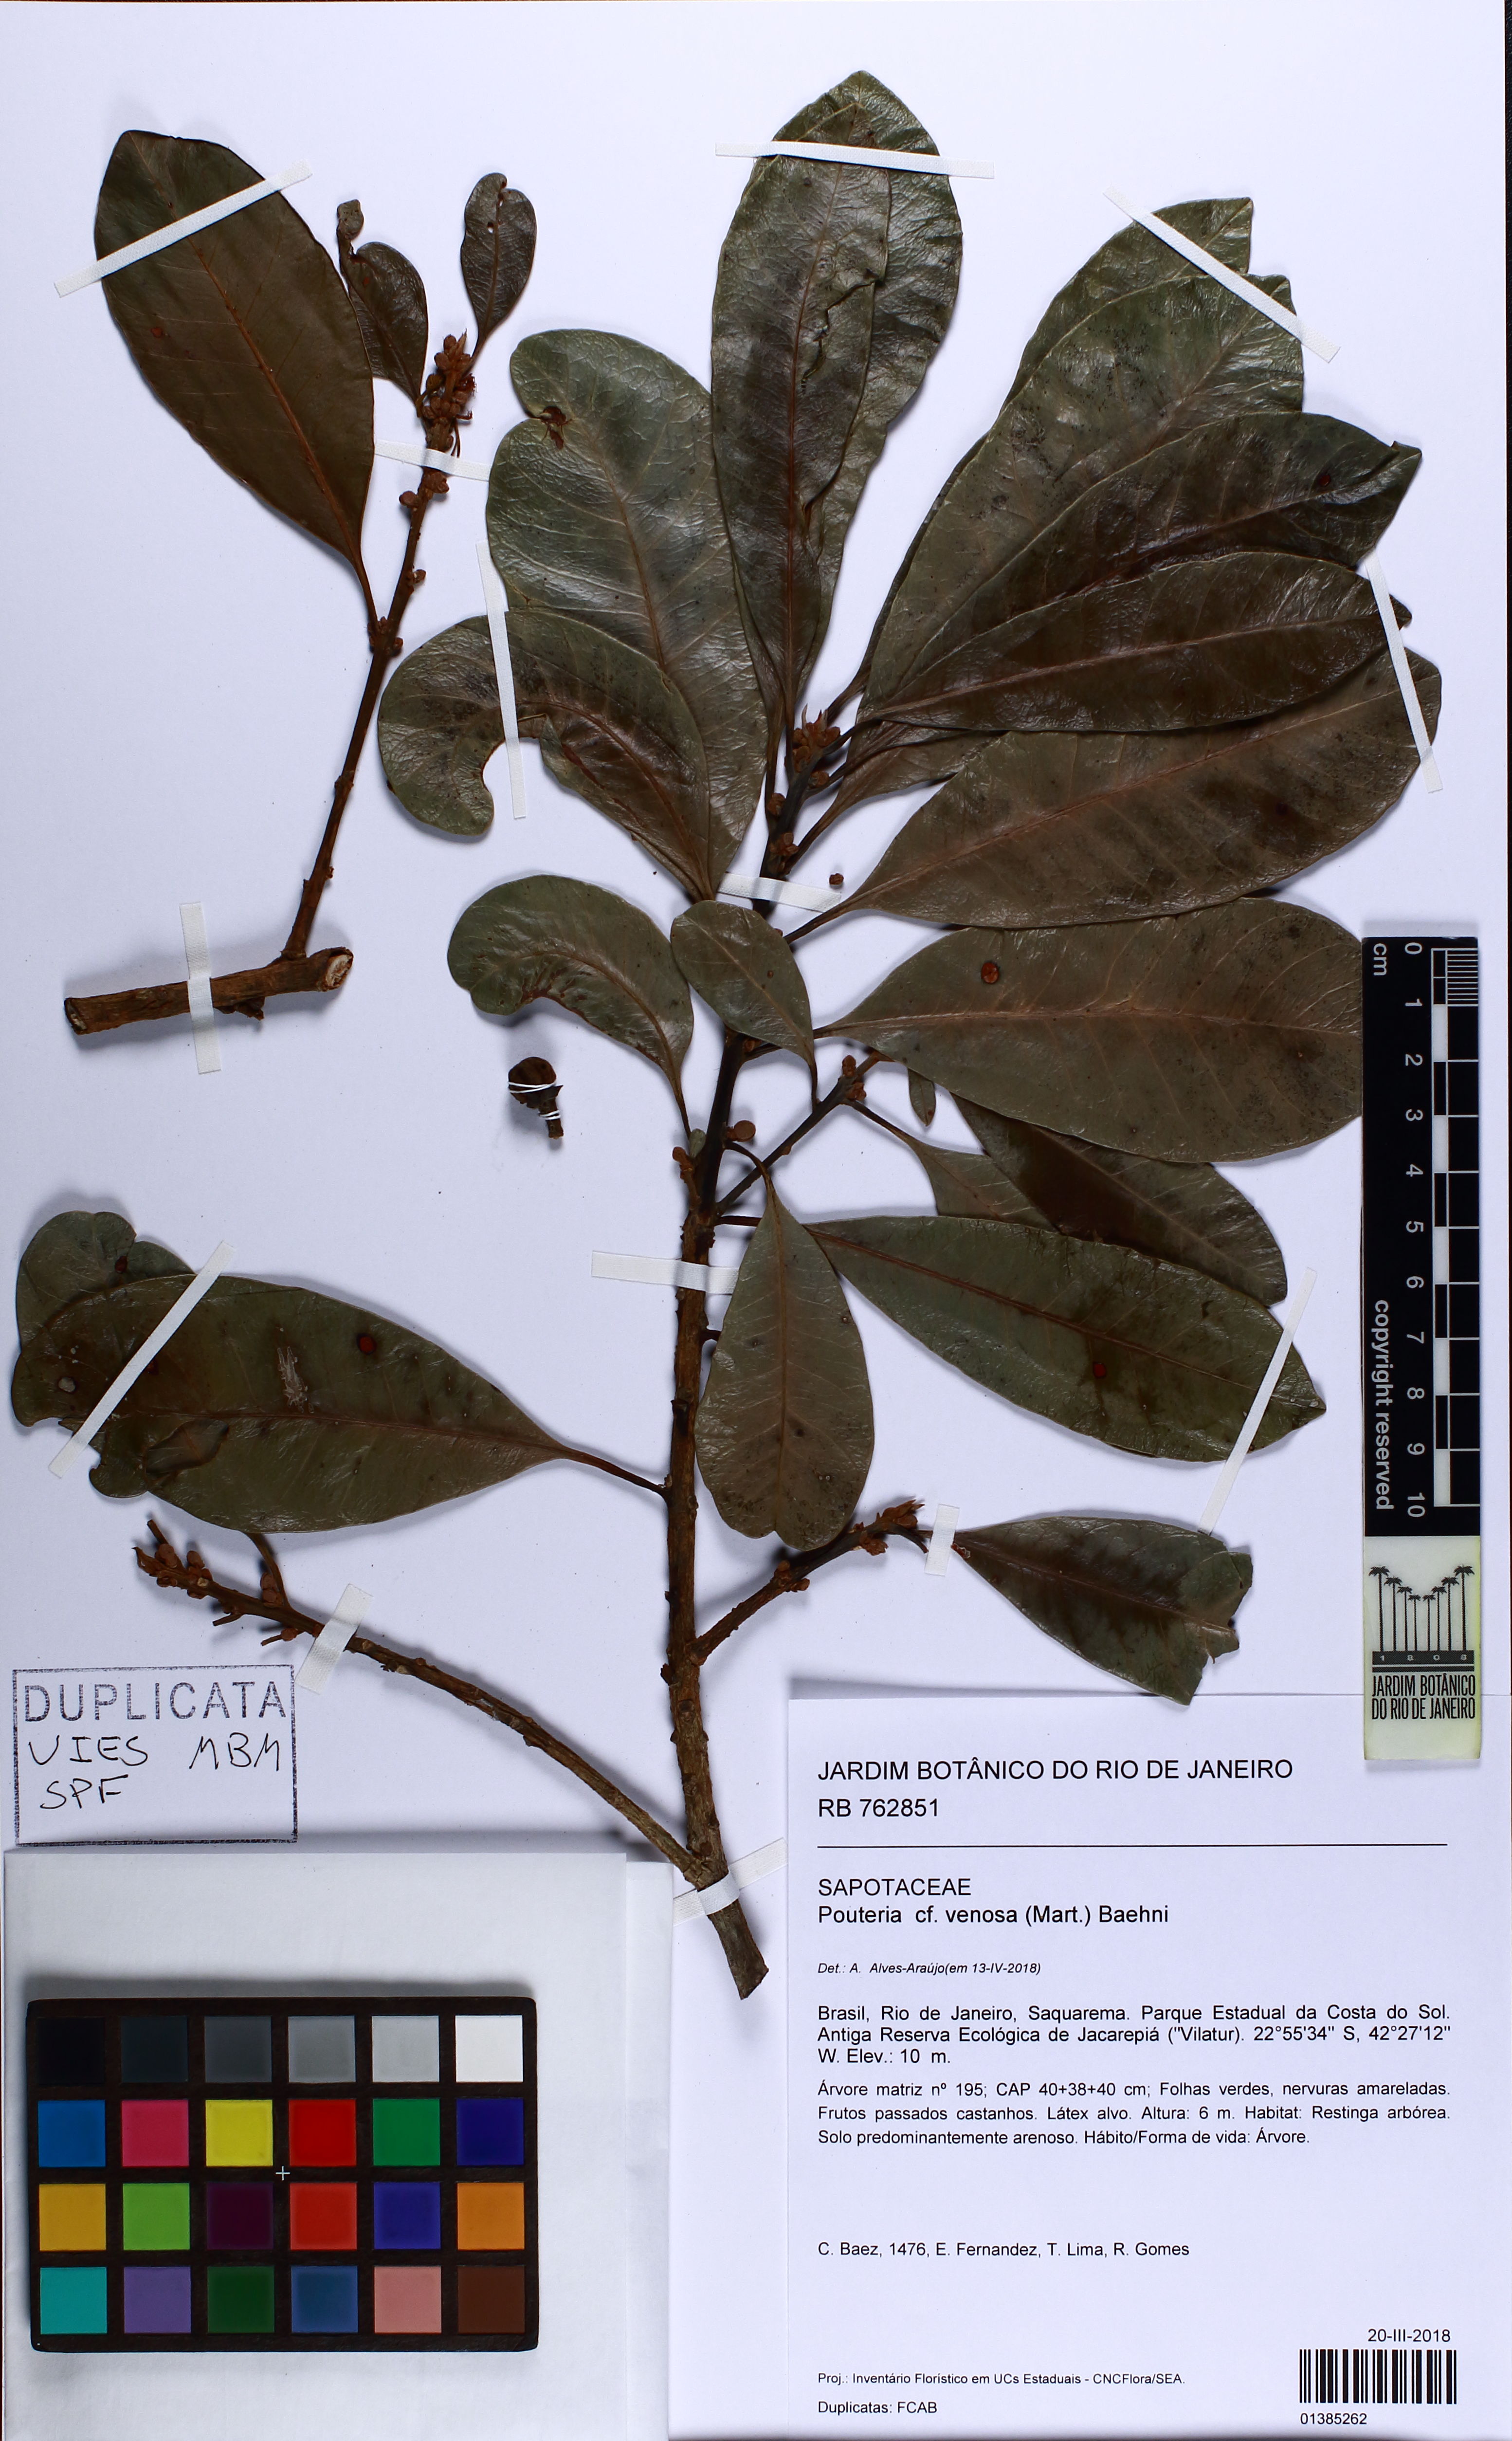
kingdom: Plantae
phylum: Tracheophyta
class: Magnoliopsida
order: Ericales
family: Sapotaceae
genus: Pouteria
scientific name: Pouteria venosa
